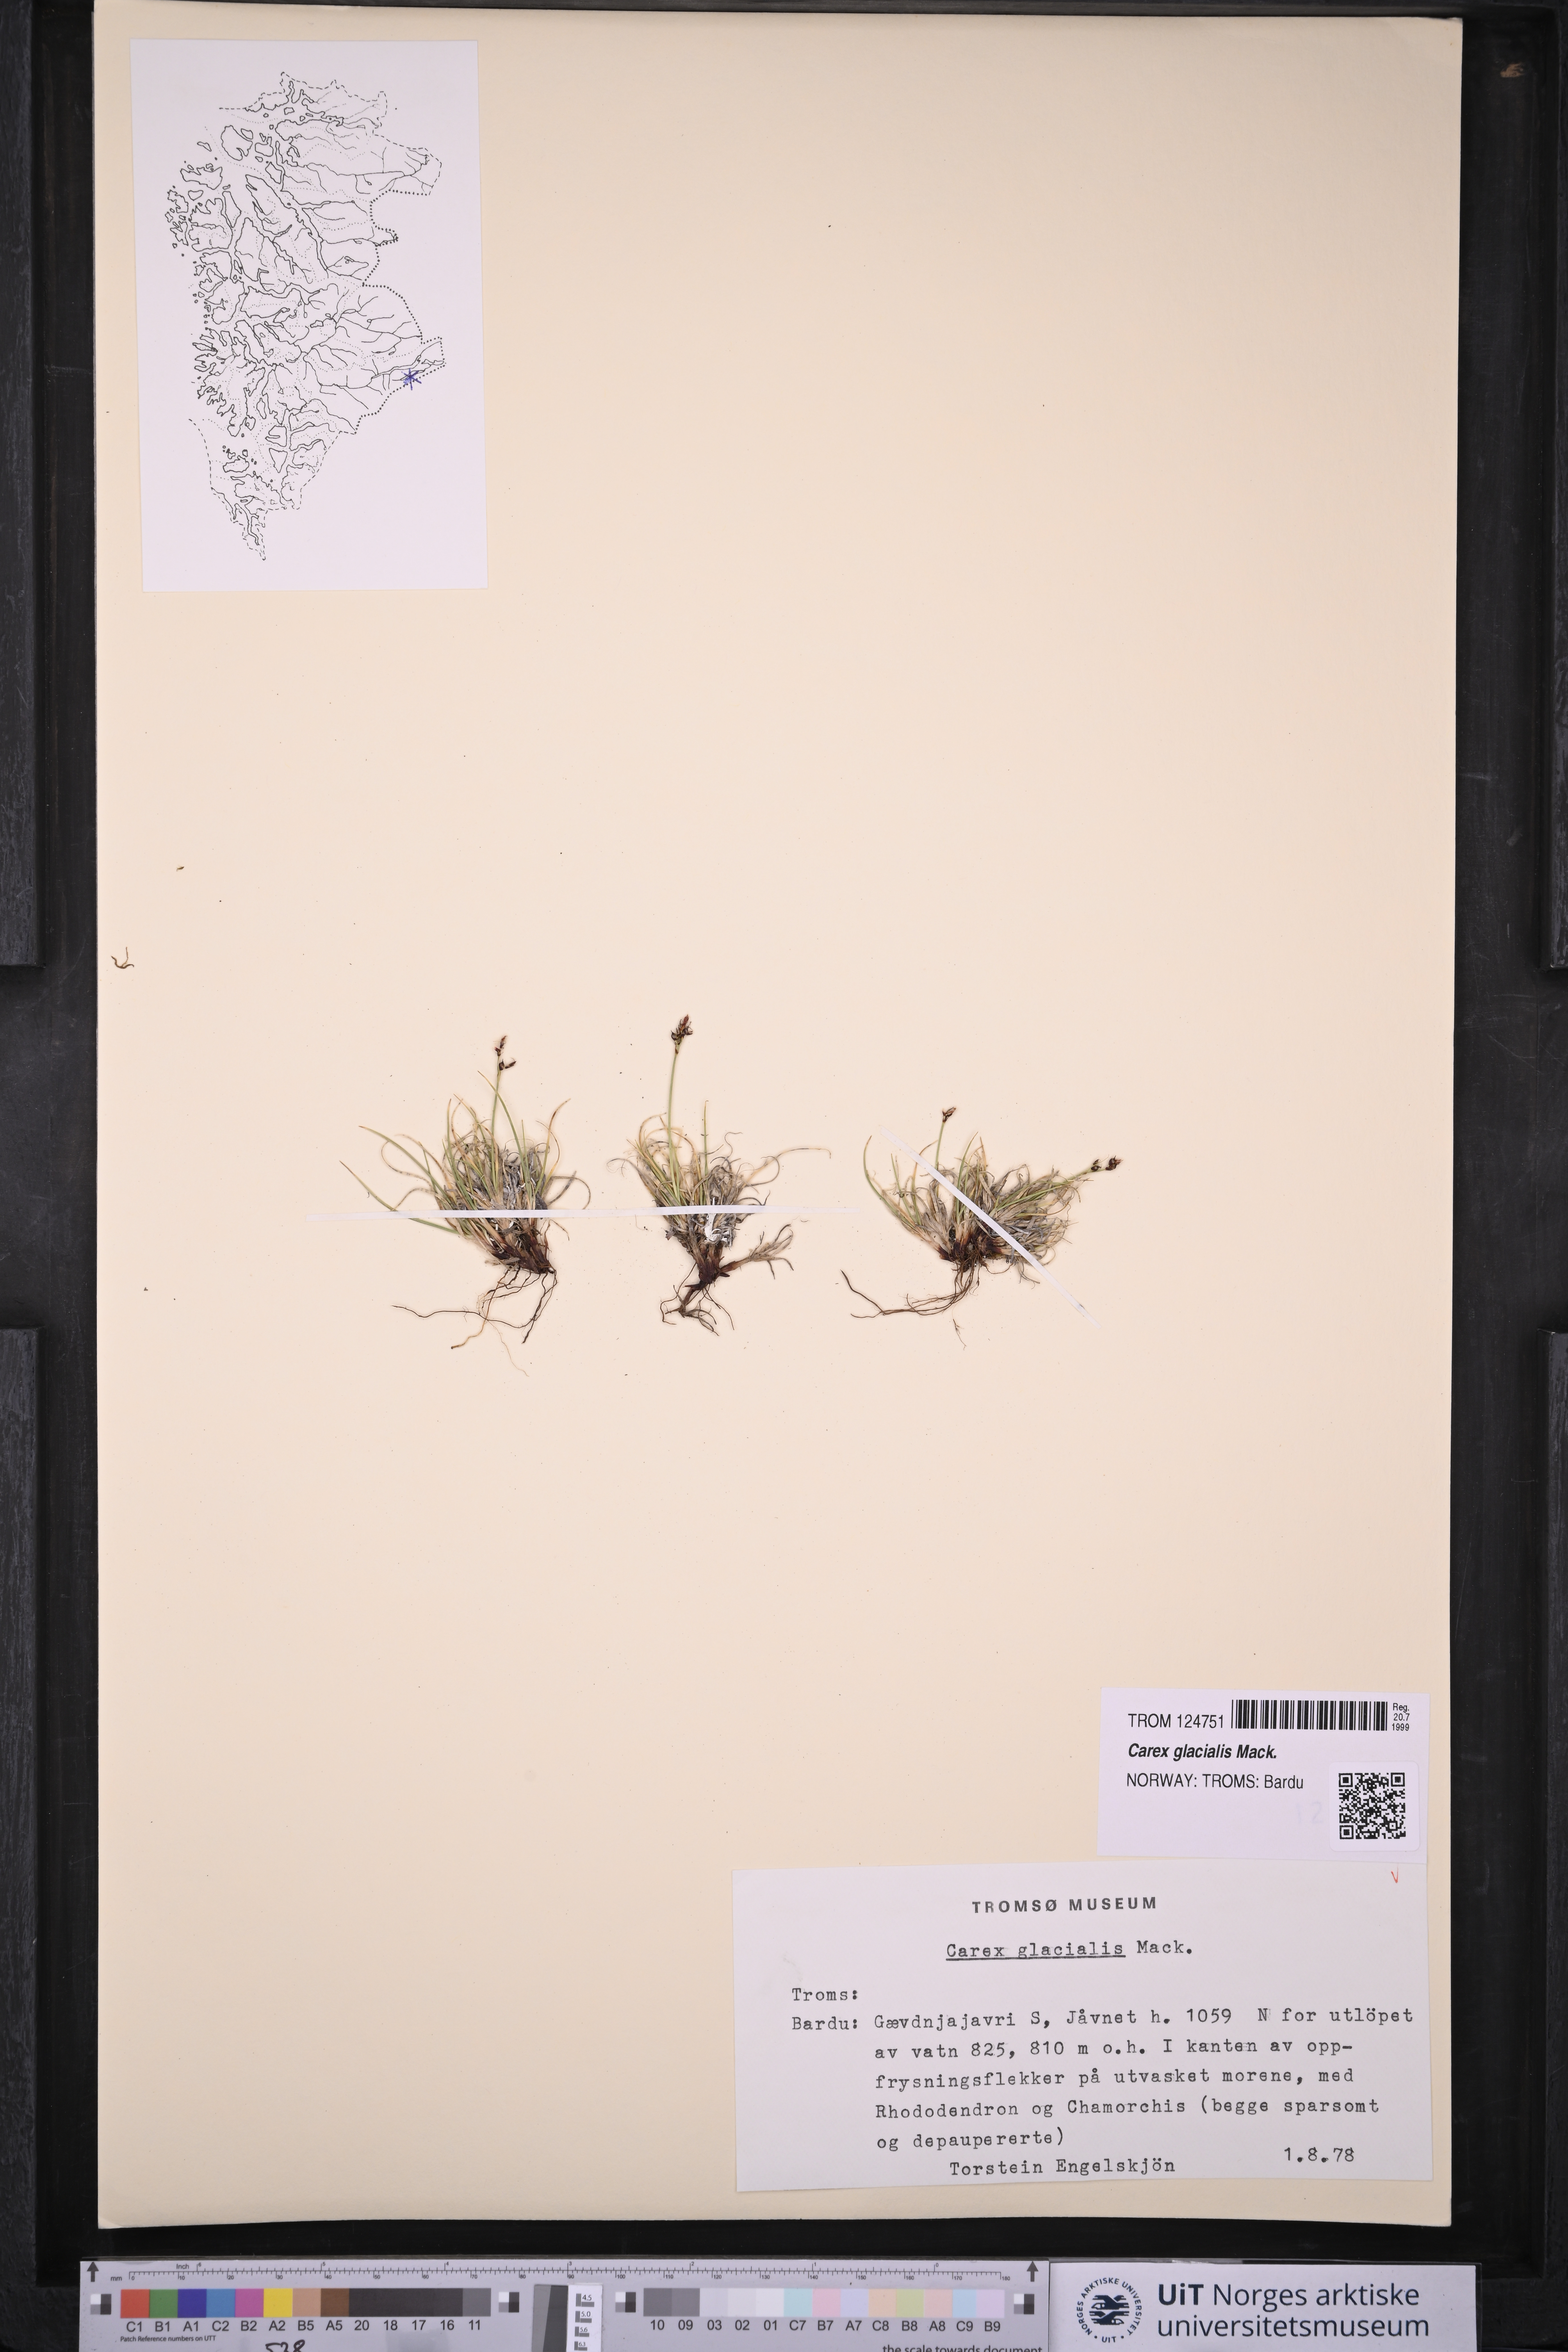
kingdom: Plantae
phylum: Tracheophyta
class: Liliopsida
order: Poales
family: Cyperaceae
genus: Carex
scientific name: Carex glacialis
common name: Newfoundland sedge
